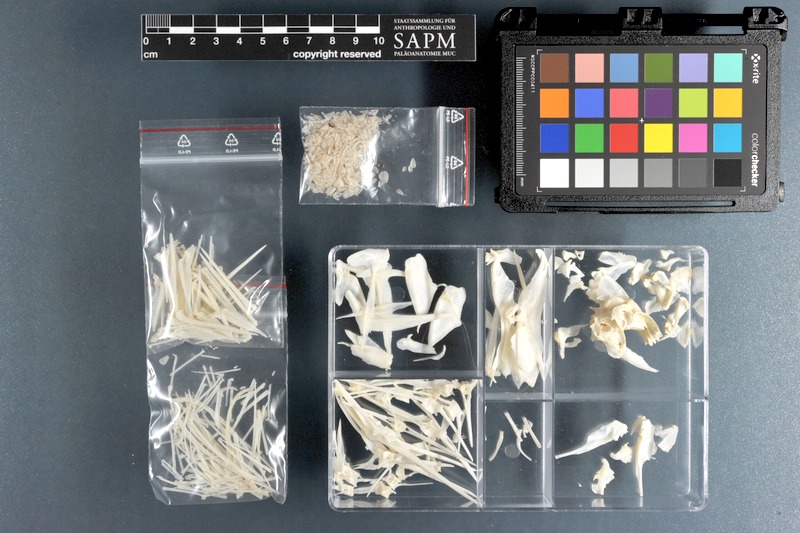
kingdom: Animalia
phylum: Chordata
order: Perciformes
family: Pomacanthidae
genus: Pomacanthus
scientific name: Pomacanthus semicirculatus
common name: Semicircle angelfish
